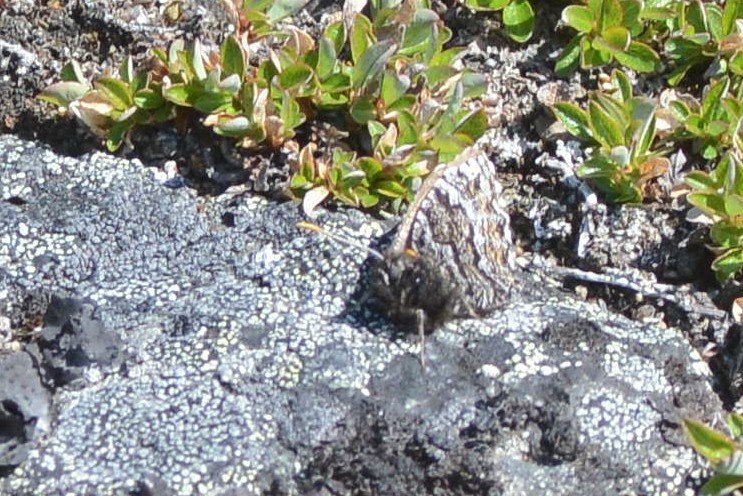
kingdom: Animalia
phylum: Arthropoda
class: Insecta
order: Lepidoptera
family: Nymphalidae
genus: Oeneis
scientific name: Oeneis bore
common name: White-veined Arctic
